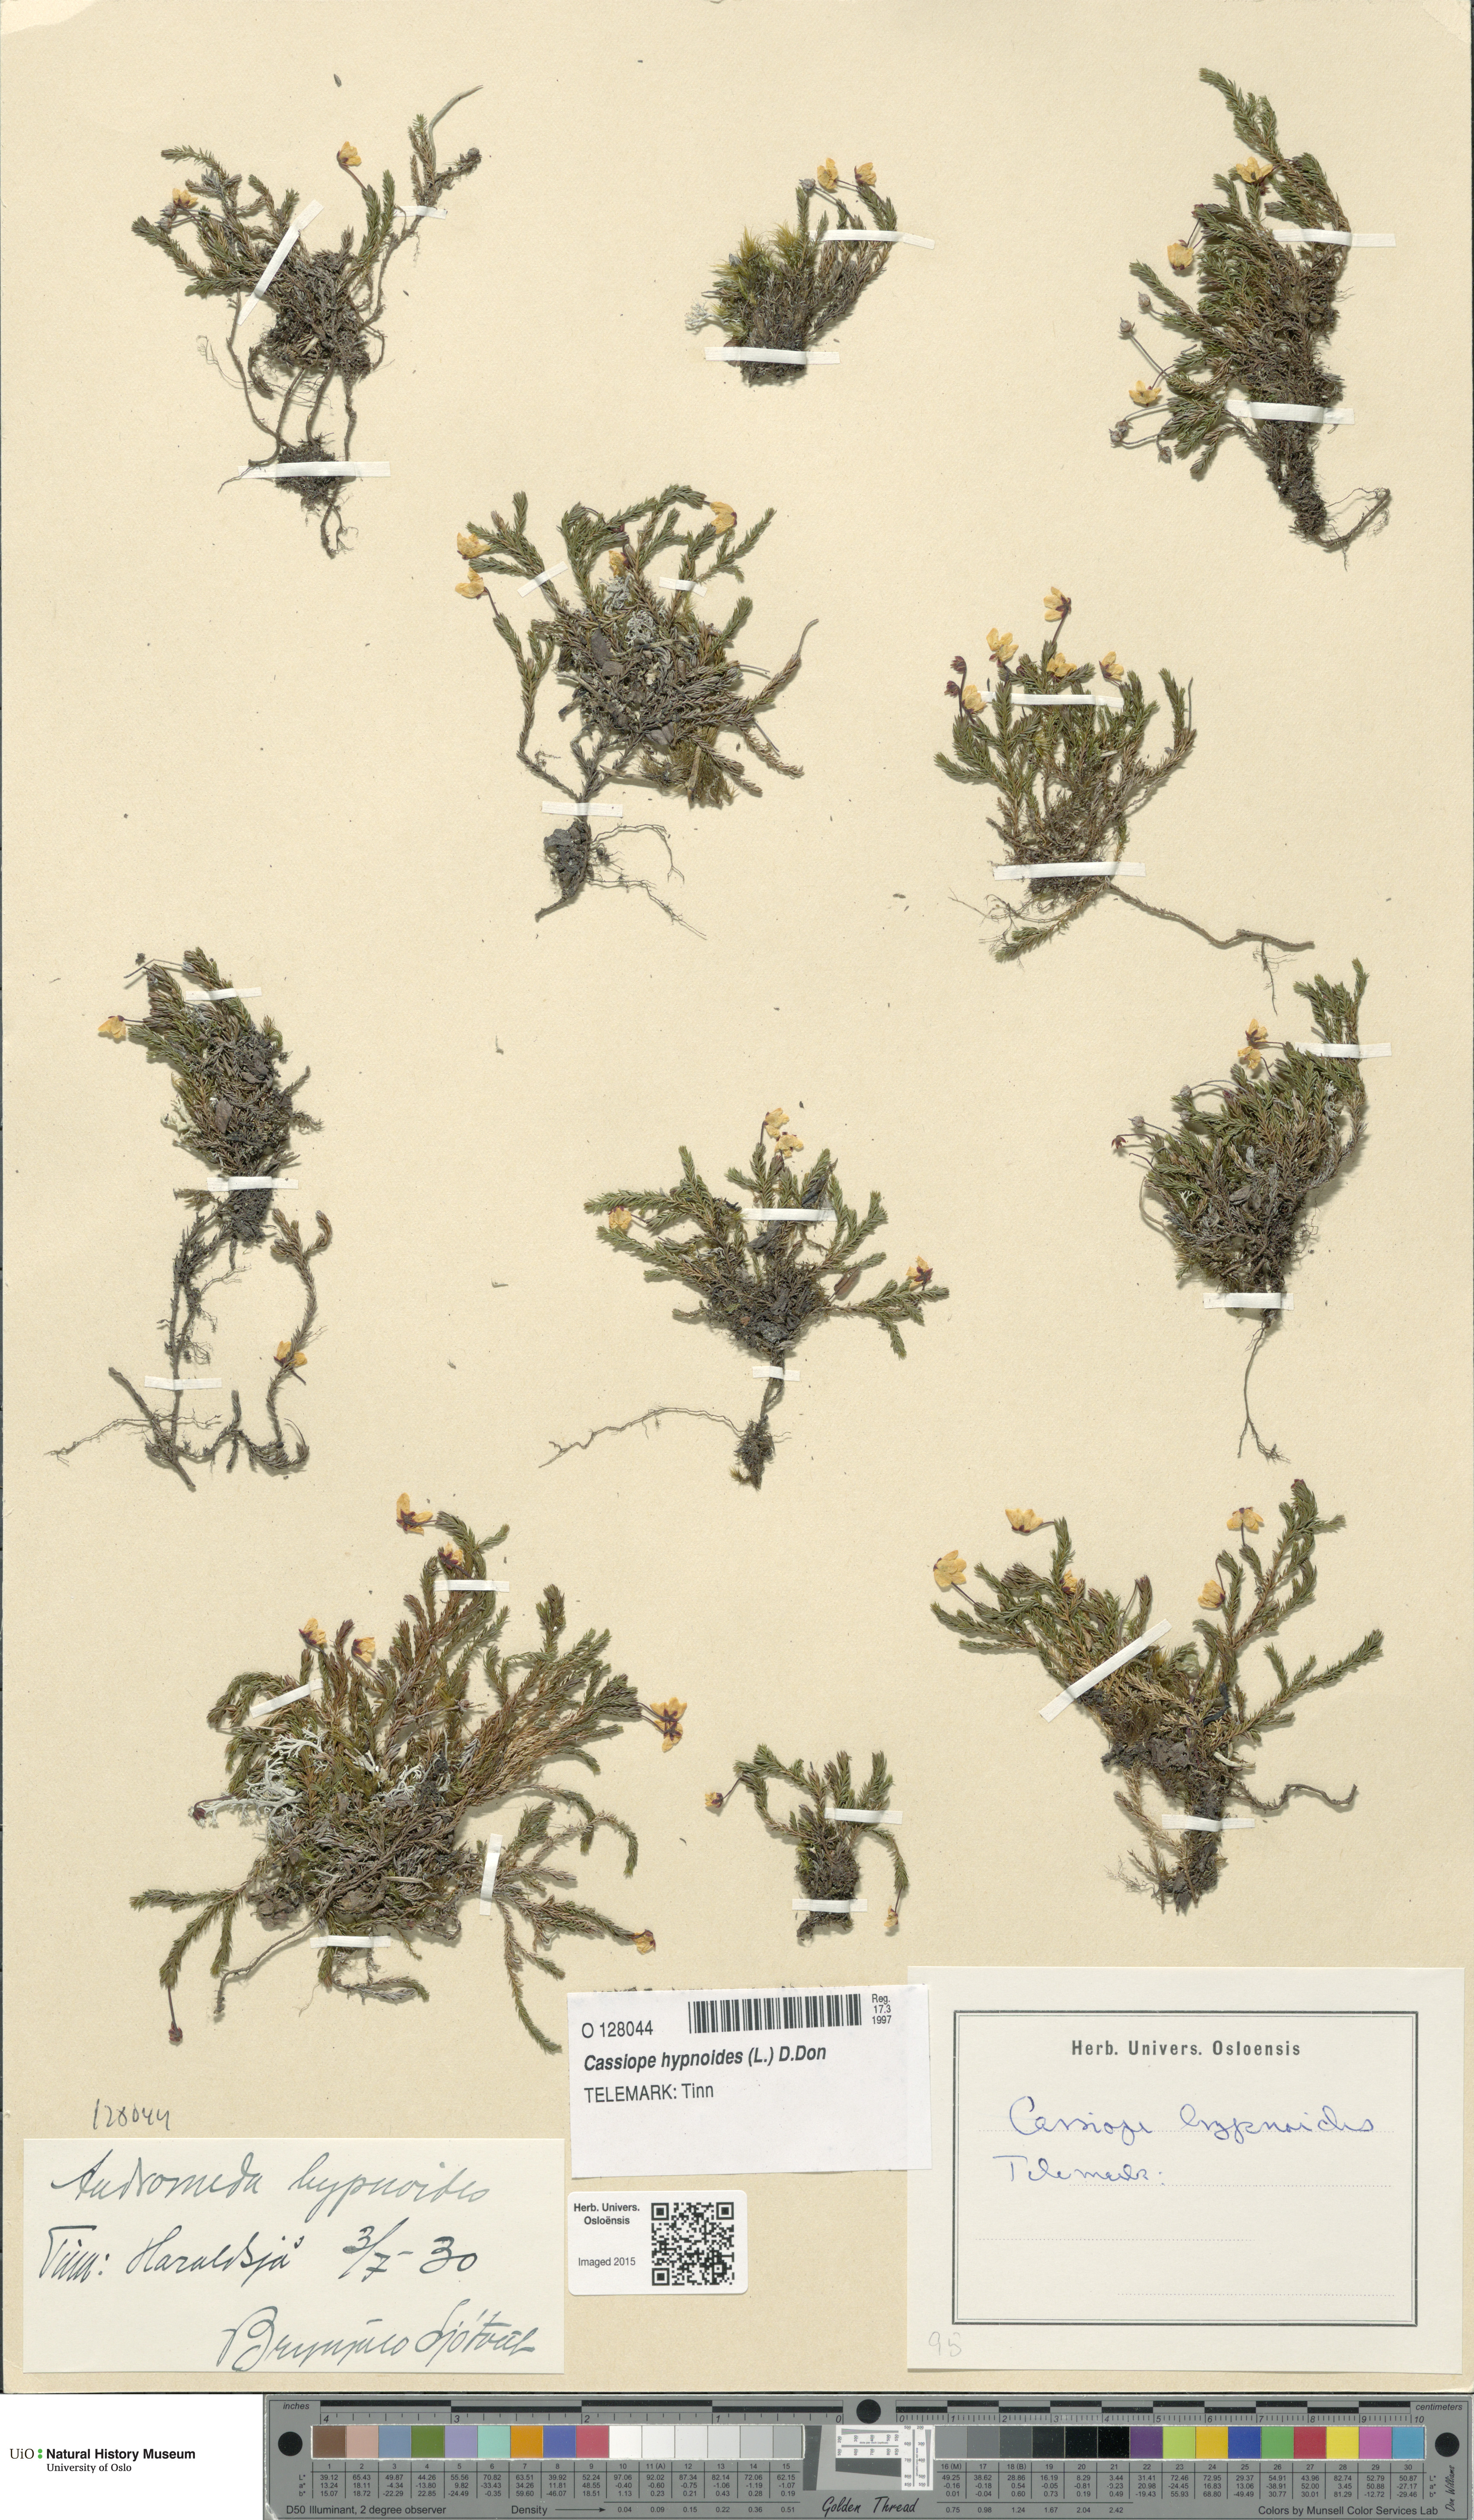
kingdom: Plantae
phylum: Tracheophyta
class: Magnoliopsida
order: Ericales
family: Ericaceae
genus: Harrimanella
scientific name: Harrimanella hypnoides
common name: Moss bell heather
